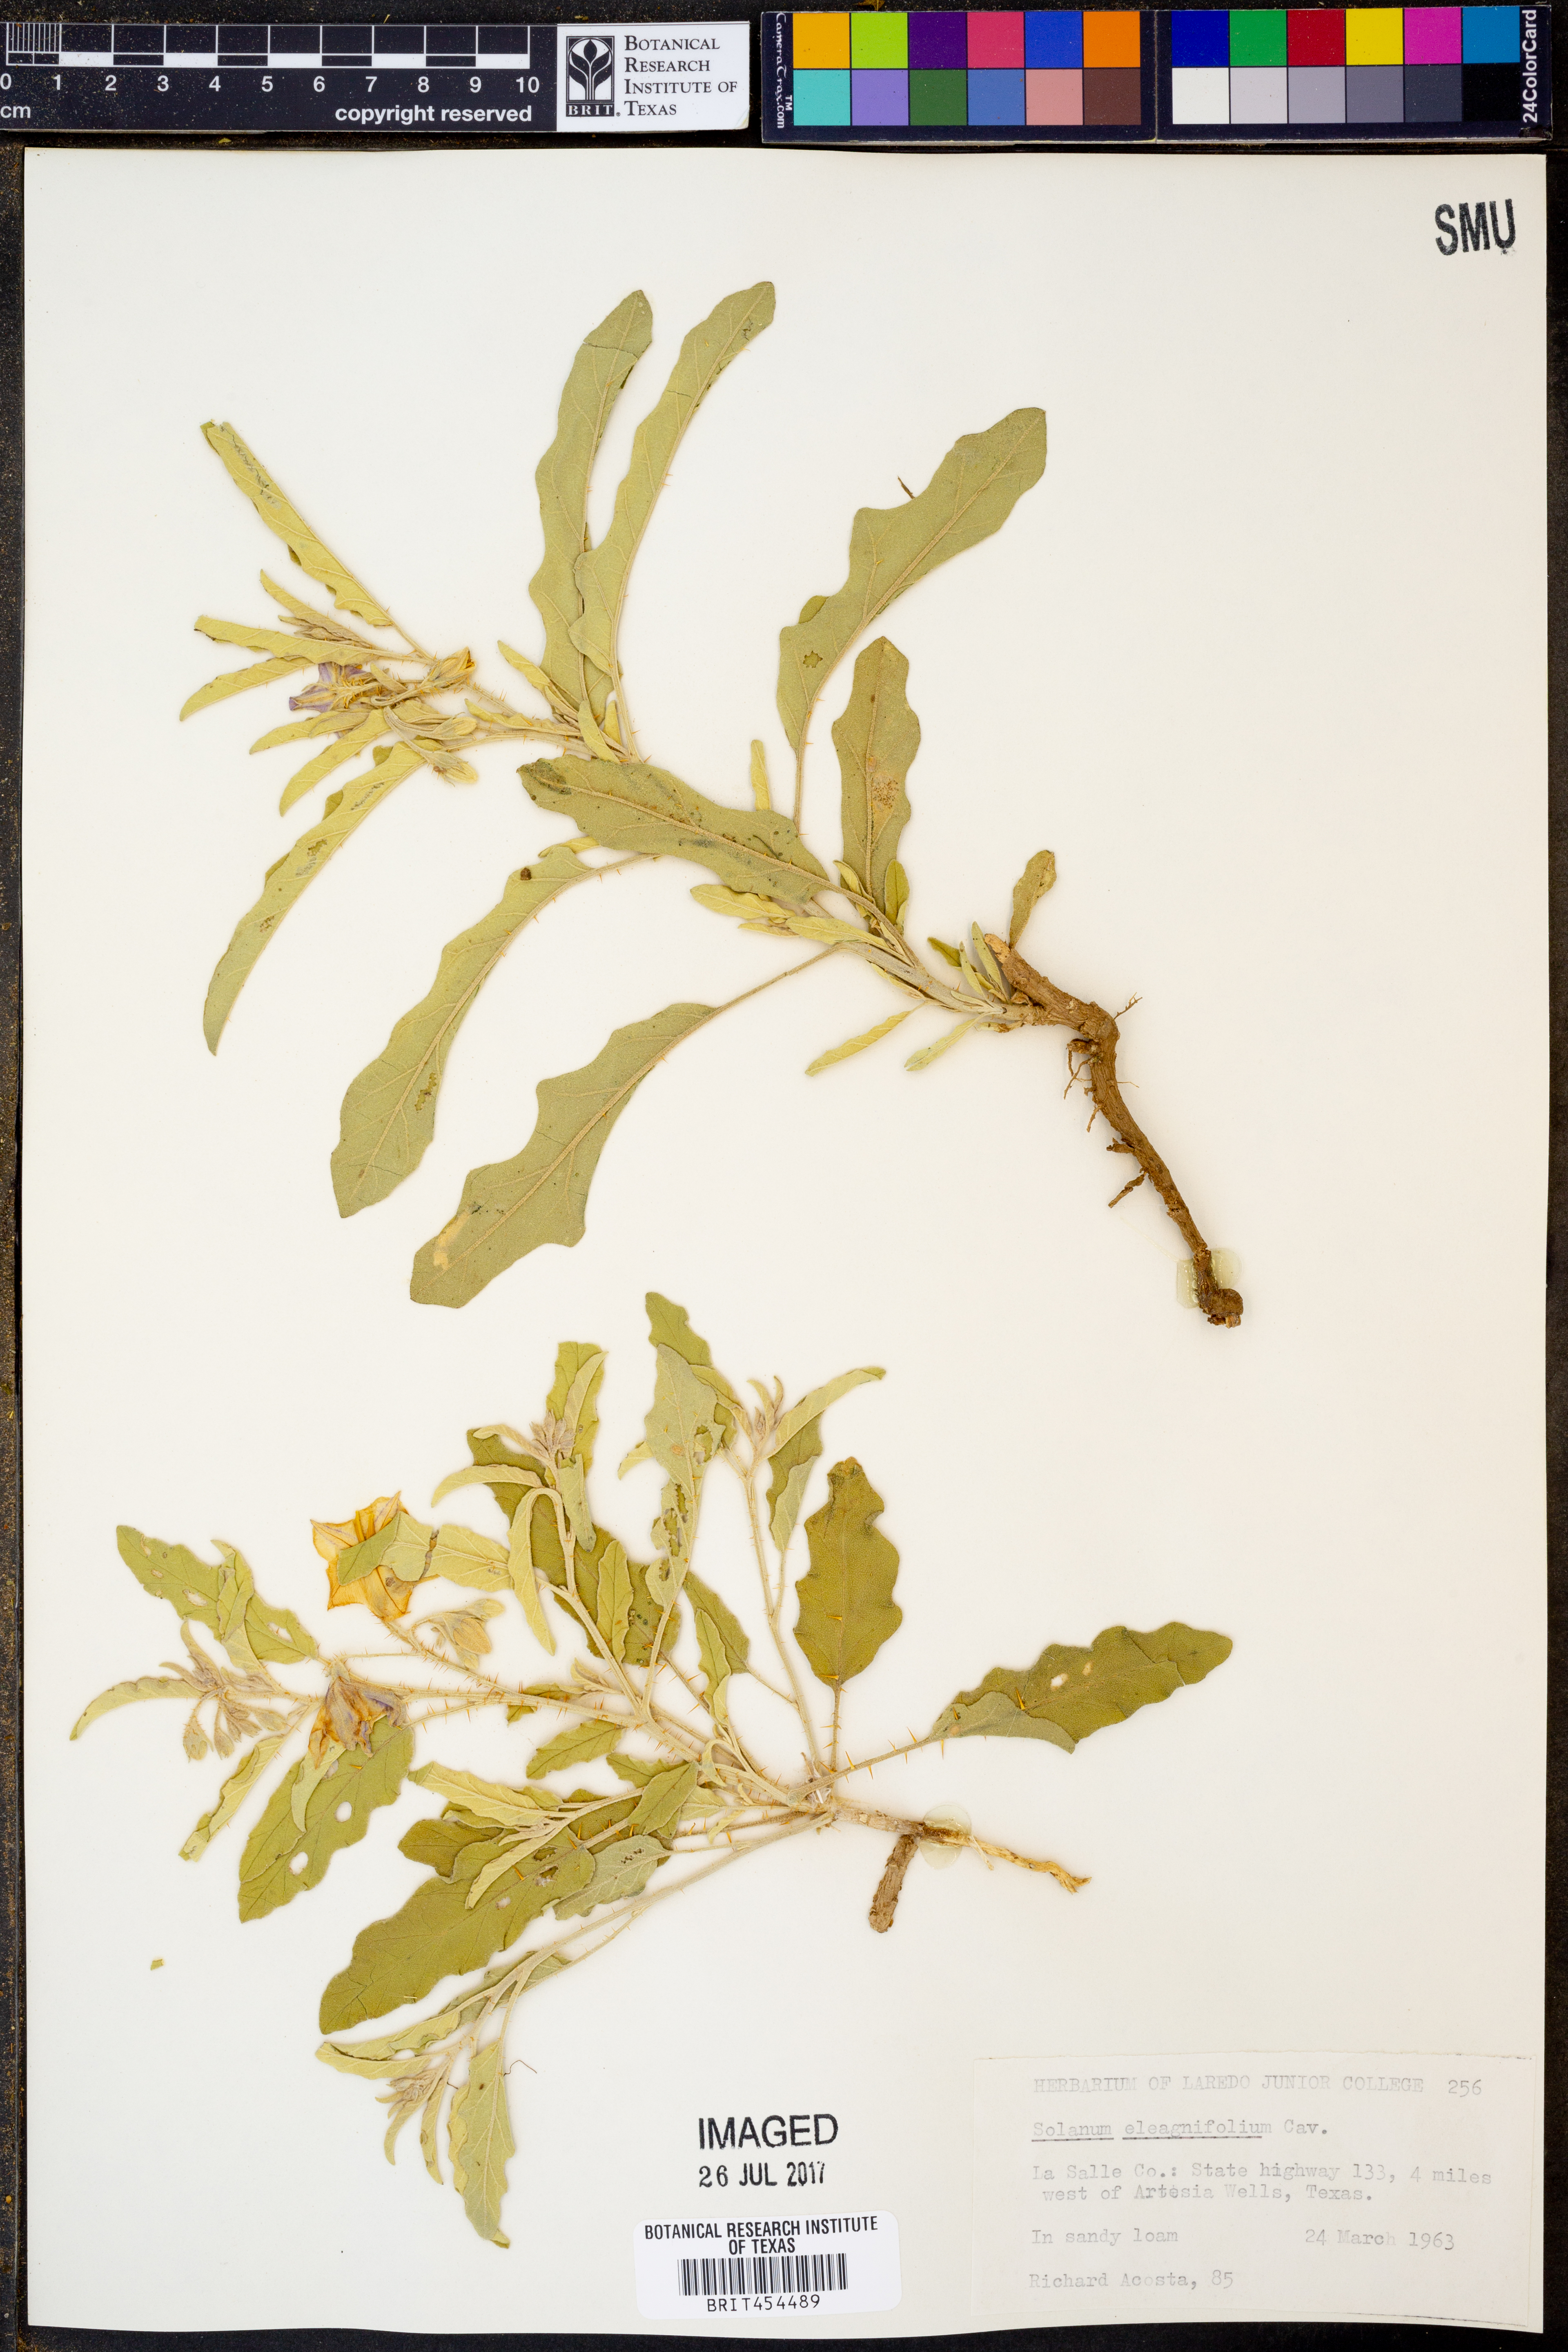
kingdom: Plantae
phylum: Tracheophyta
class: Magnoliopsida
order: Solanales
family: Solanaceae
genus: Solanum
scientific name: Solanum elaeagnifolium
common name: Silverleaf nightshade
